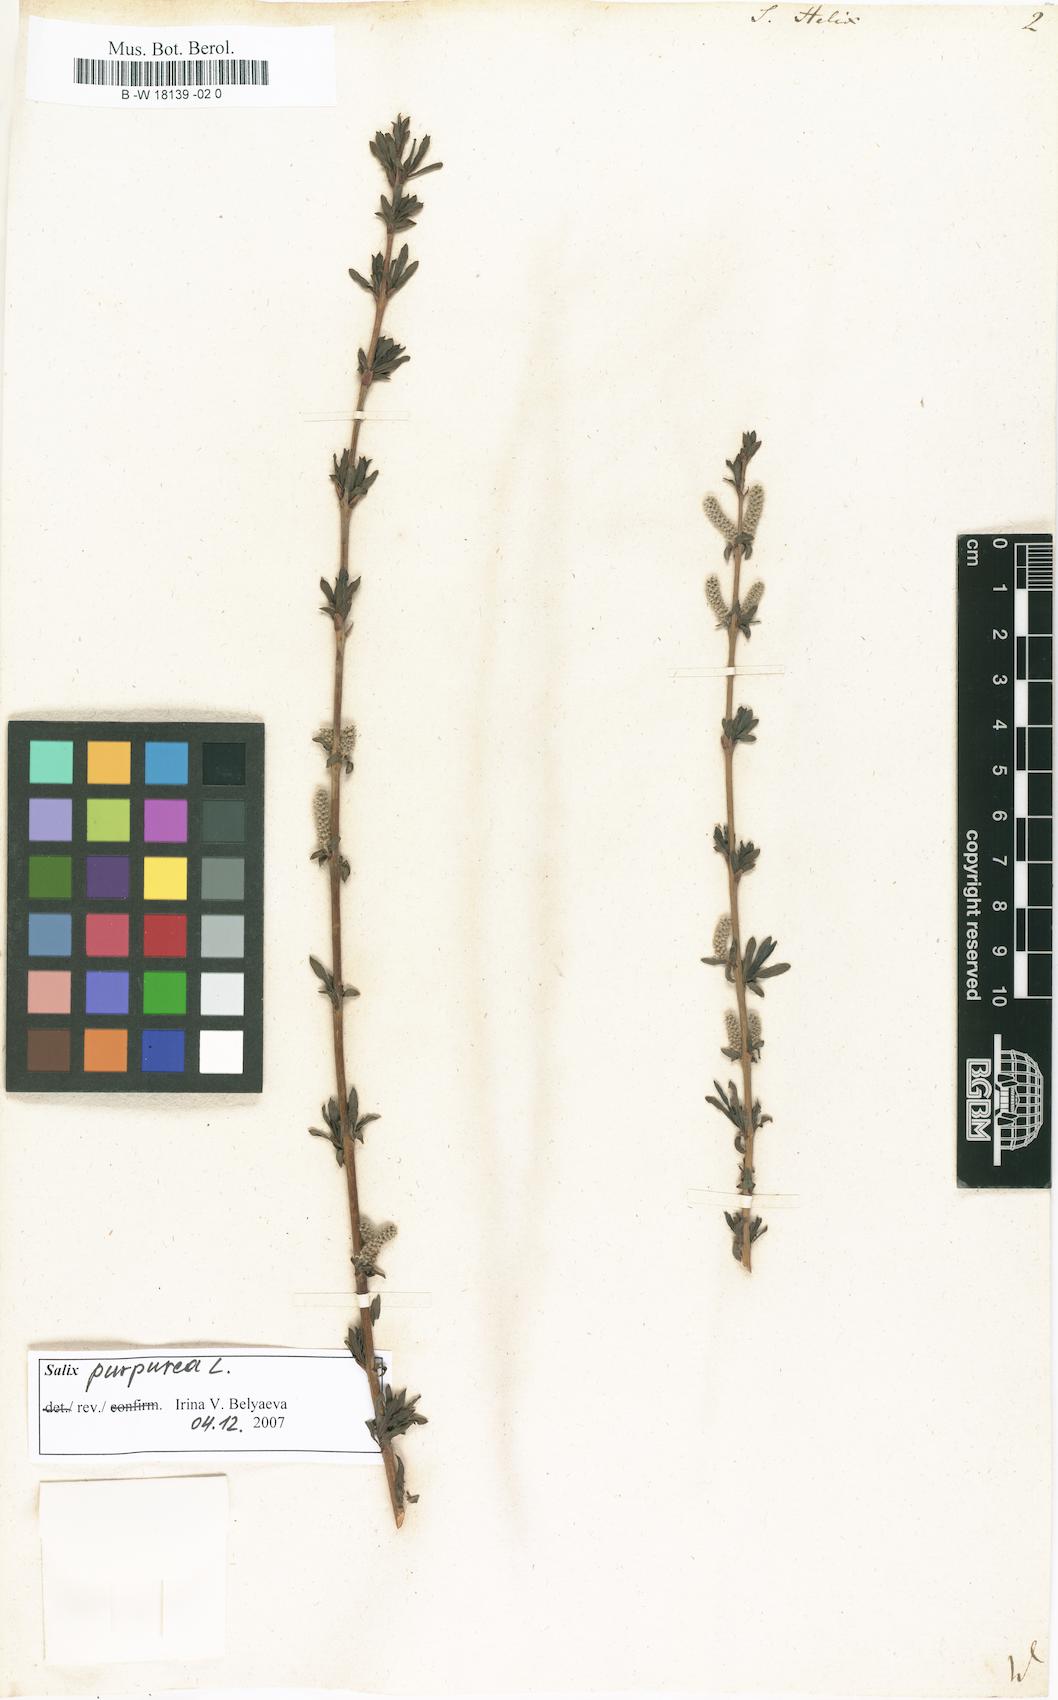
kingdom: Plantae
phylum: Tracheophyta
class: Magnoliopsida
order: Malpighiales
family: Salicaceae
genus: Salix
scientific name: Salix purpurea
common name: Purple willow
